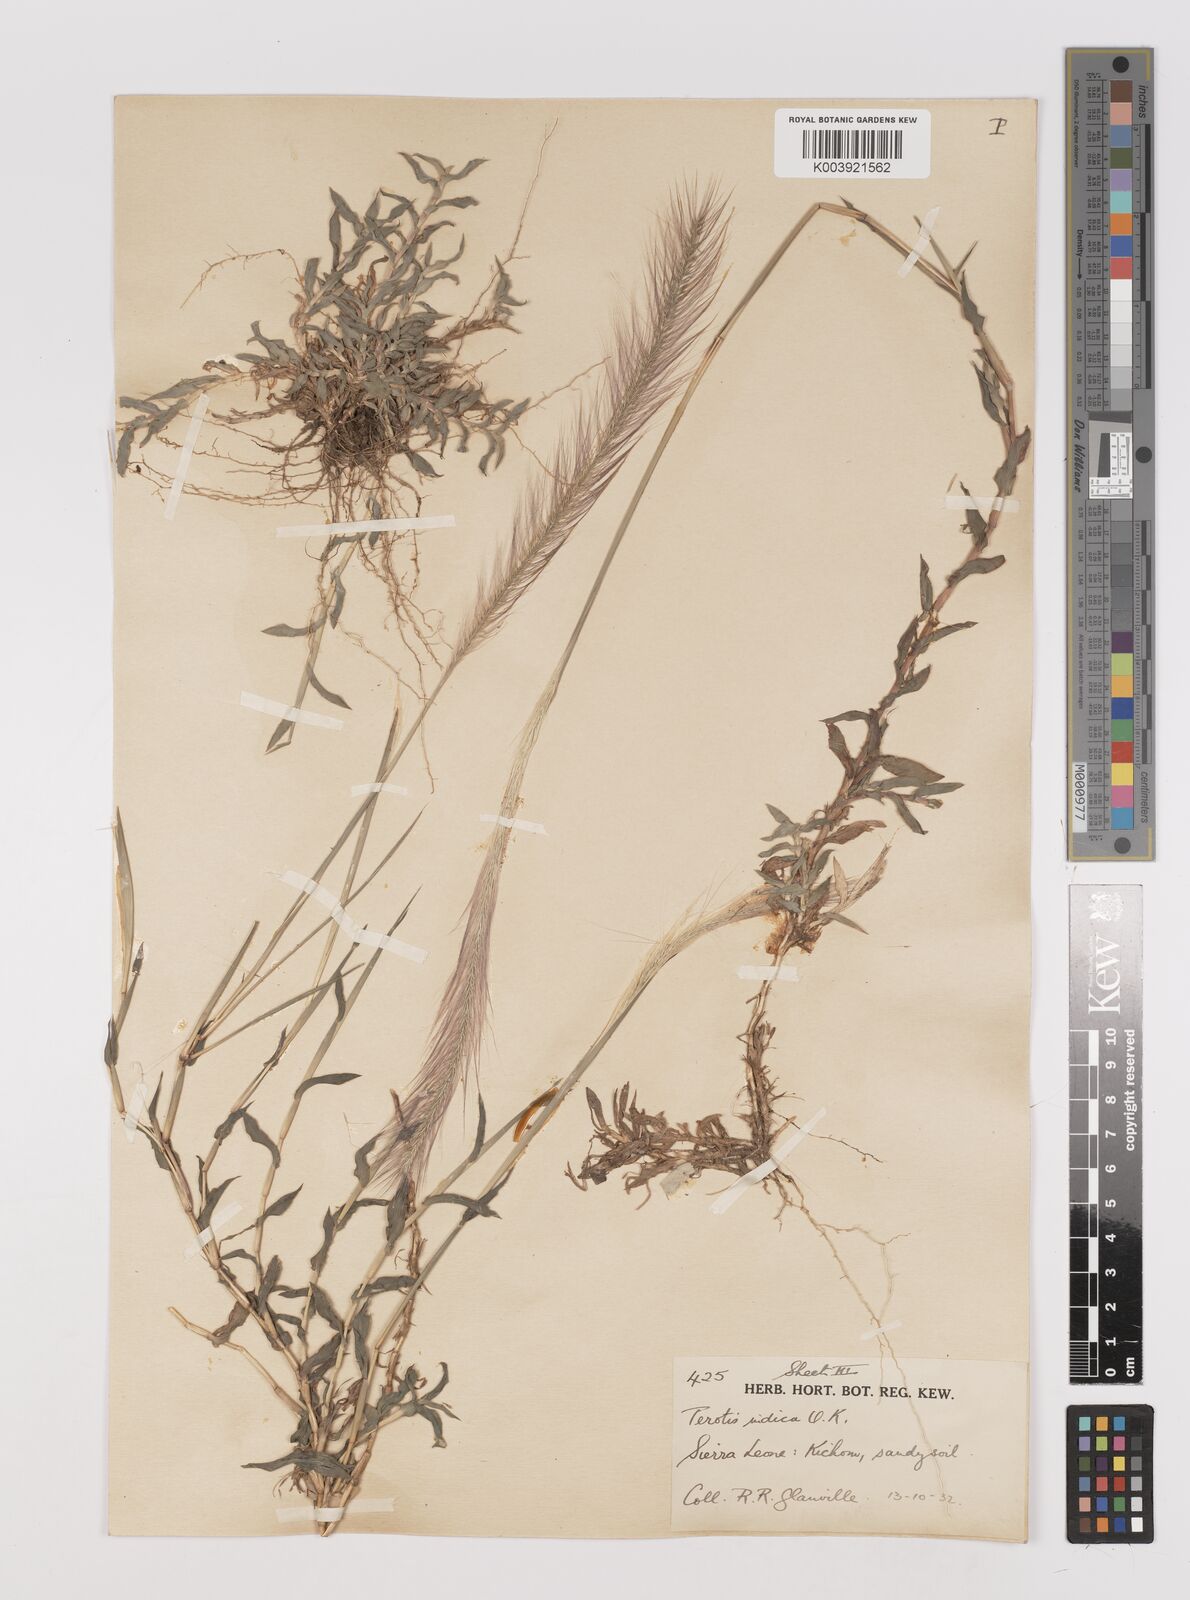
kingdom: Plantae
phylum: Tracheophyta
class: Liliopsida
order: Poales
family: Poaceae
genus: Perotis
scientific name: Perotis scabra
